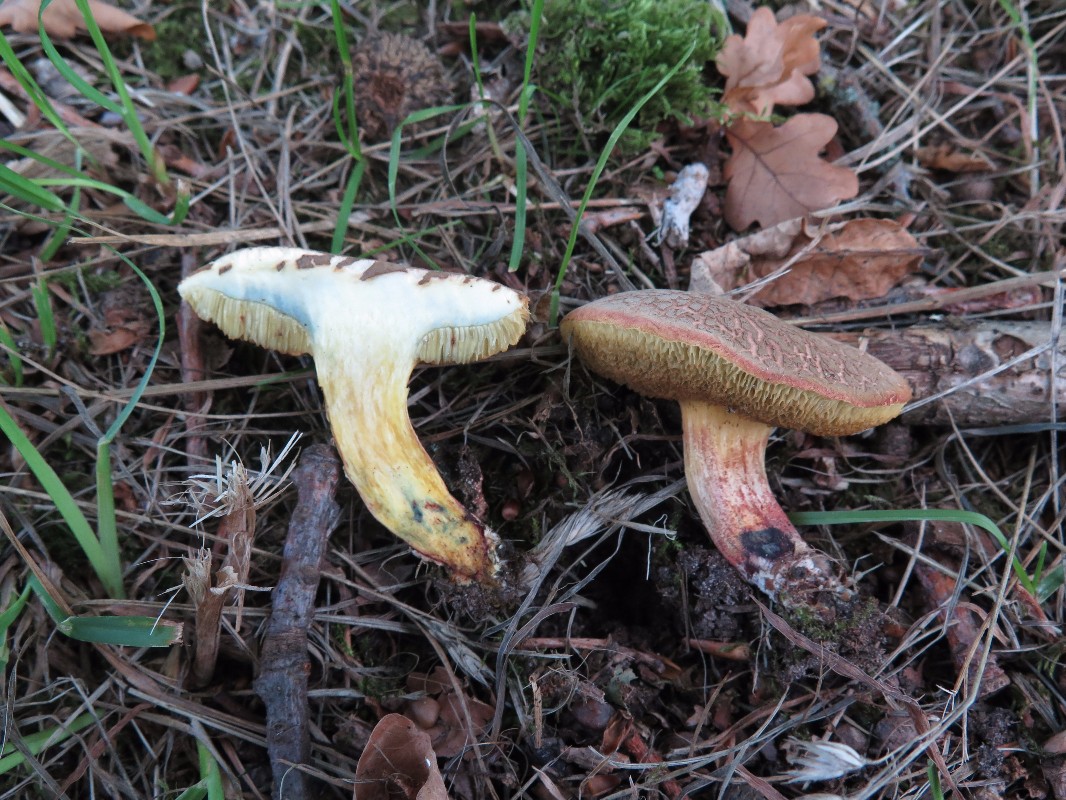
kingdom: Fungi
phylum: Basidiomycota
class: Agaricomycetes
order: Boletales
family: Boletaceae
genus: Xerocomellus
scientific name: Xerocomellus cisalpinus
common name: finsprukken rørhat
